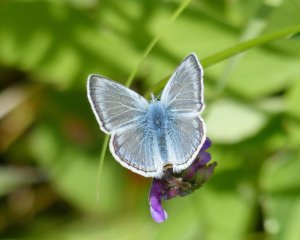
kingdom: Animalia
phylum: Arthropoda
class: Insecta
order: Lepidoptera
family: Lycaenidae
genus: Plebejus
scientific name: Plebejus saepiolus
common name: Greenish Blue
